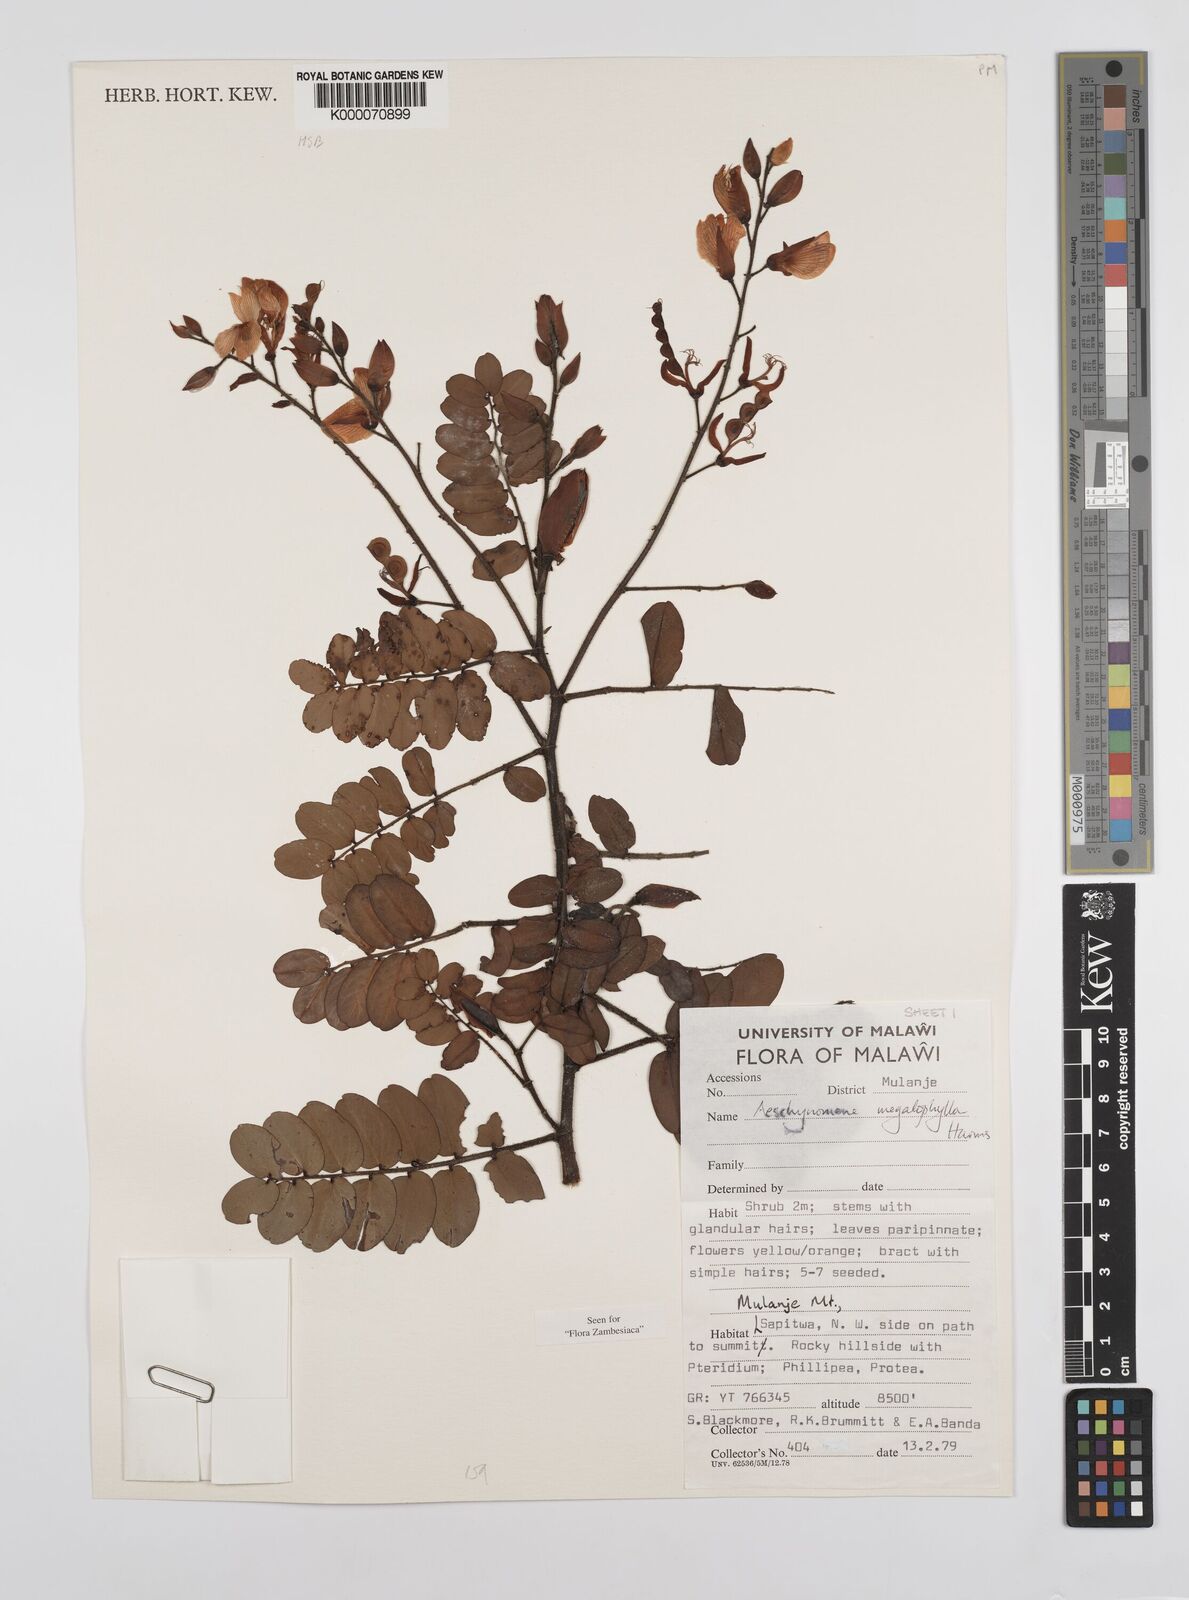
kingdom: Plantae
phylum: Tracheophyta
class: Magnoliopsida
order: Fabales
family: Fabaceae
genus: Aeschynomene
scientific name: Aeschynomene megalophylla
